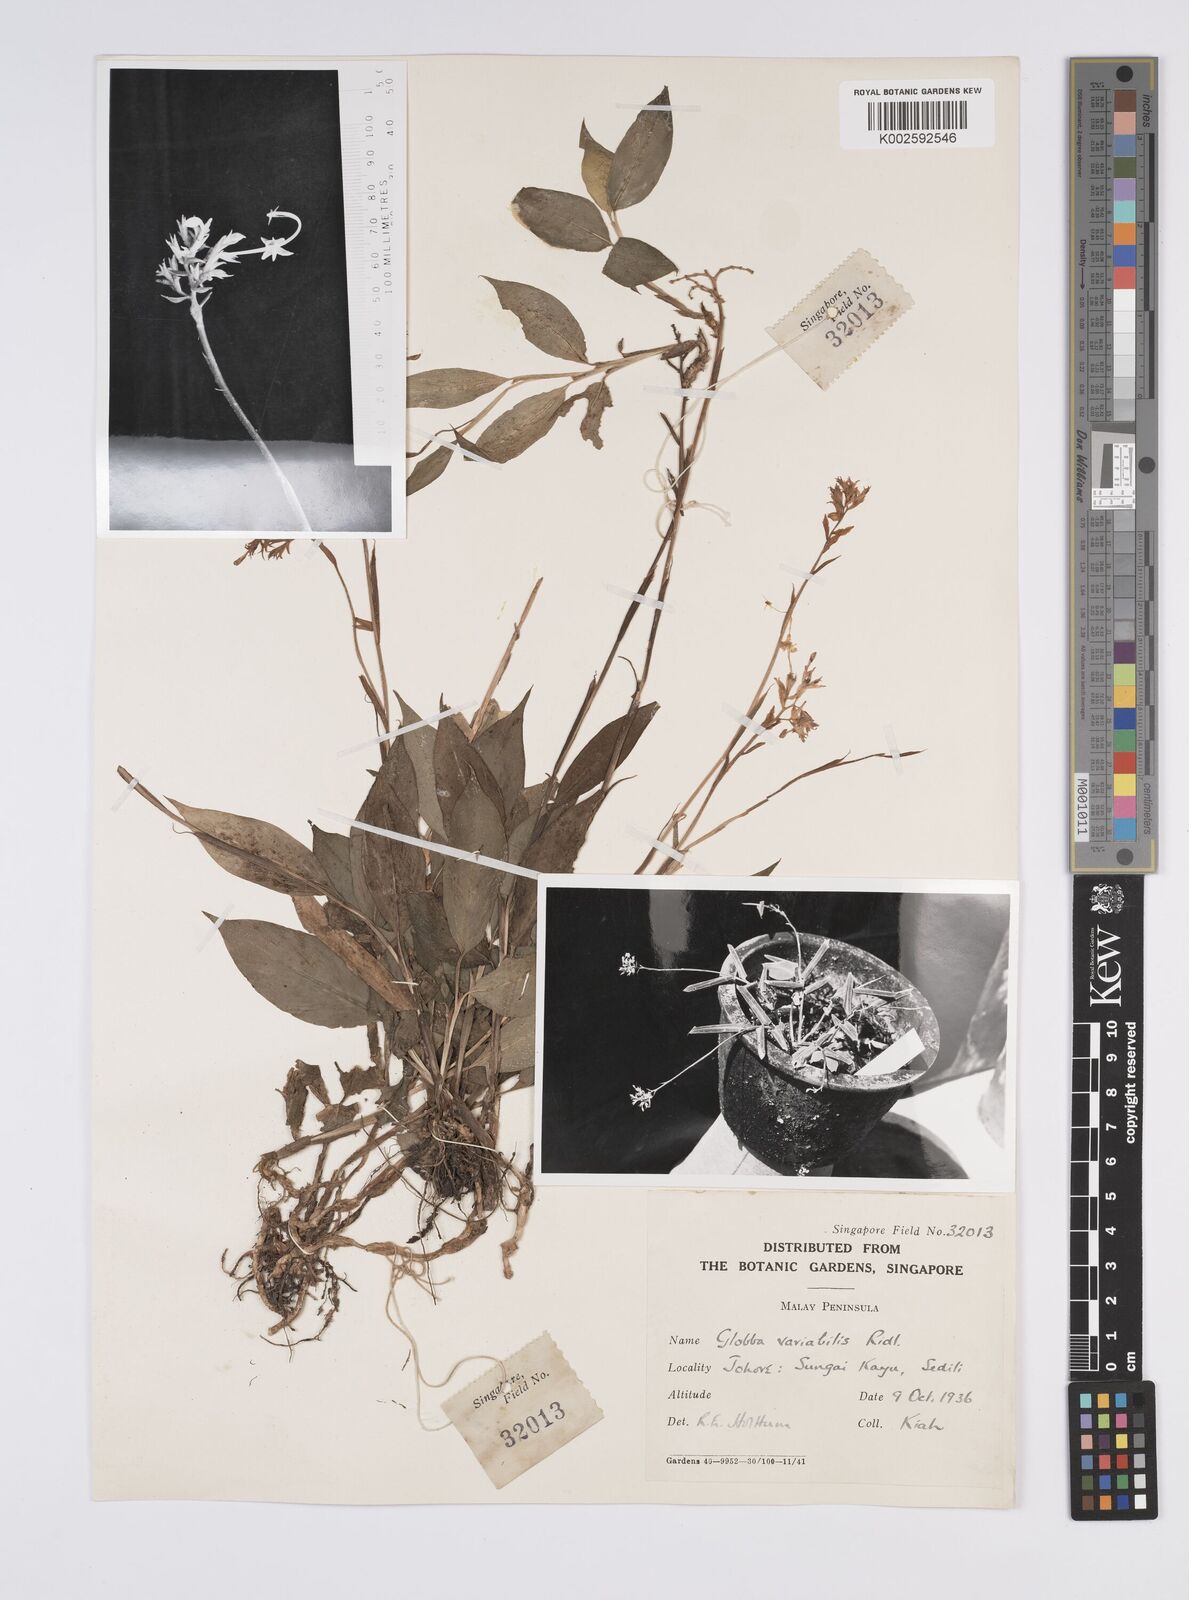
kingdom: Plantae
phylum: Tracheophyta
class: Liliopsida
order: Zingiberales
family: Zingiberaceae
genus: Globba
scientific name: Globba
